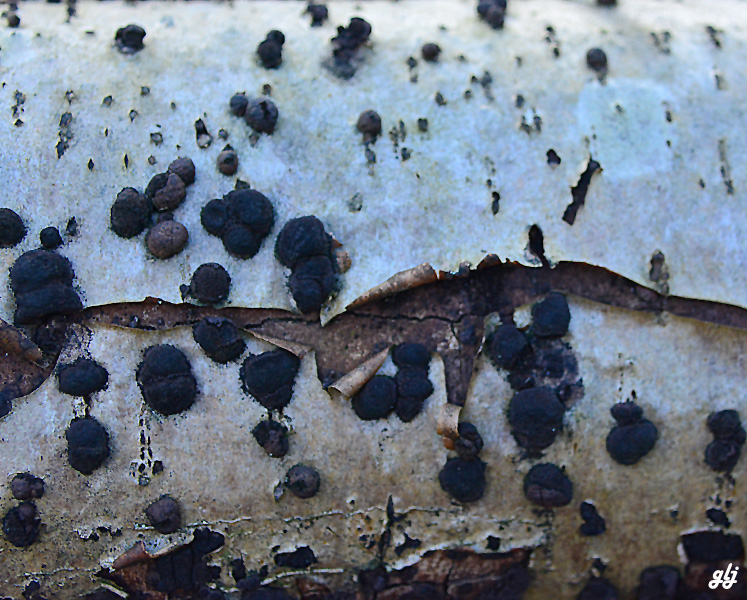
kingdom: Fungi
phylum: Ascomycota
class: Sordariomycetes
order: Xylariales
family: Hypoxylaceae
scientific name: Hypoxylaceae
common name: kulbærfamilien
